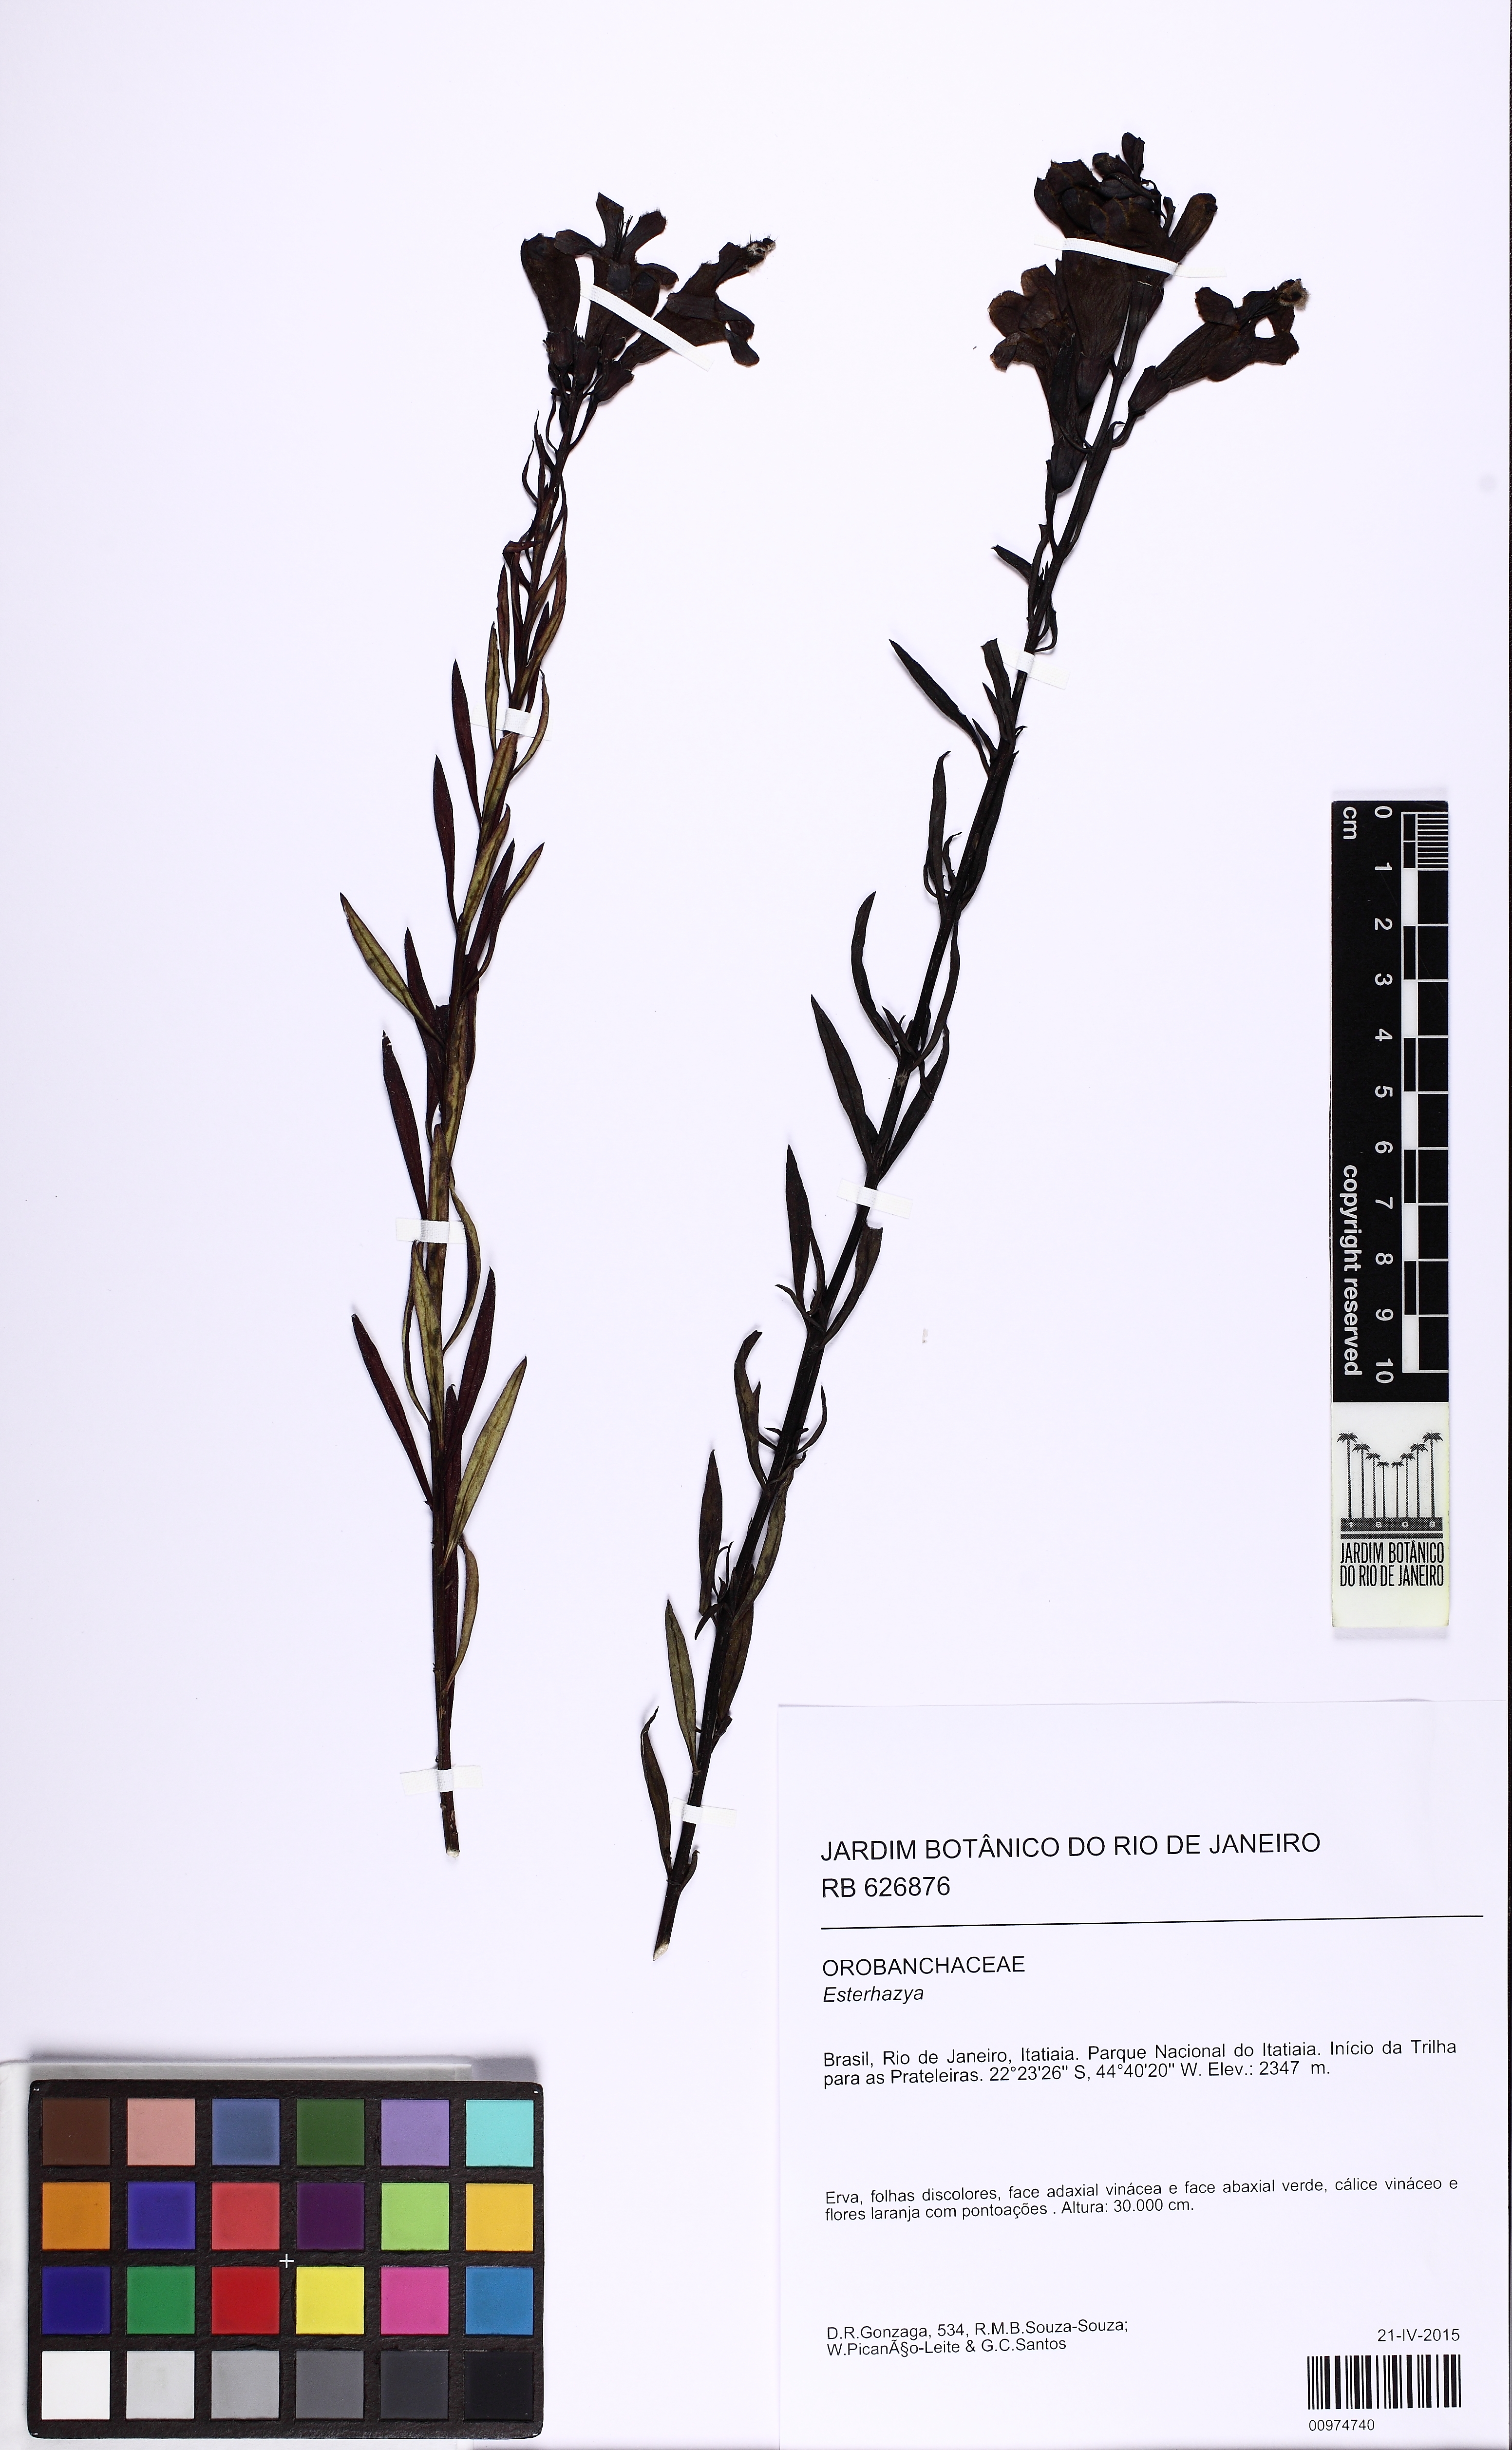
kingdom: Plantae
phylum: Tracheophyta
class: Magnoliopsida
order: Lamiales
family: Orobanchaceae
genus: Esterhazya
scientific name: Esterhazya
